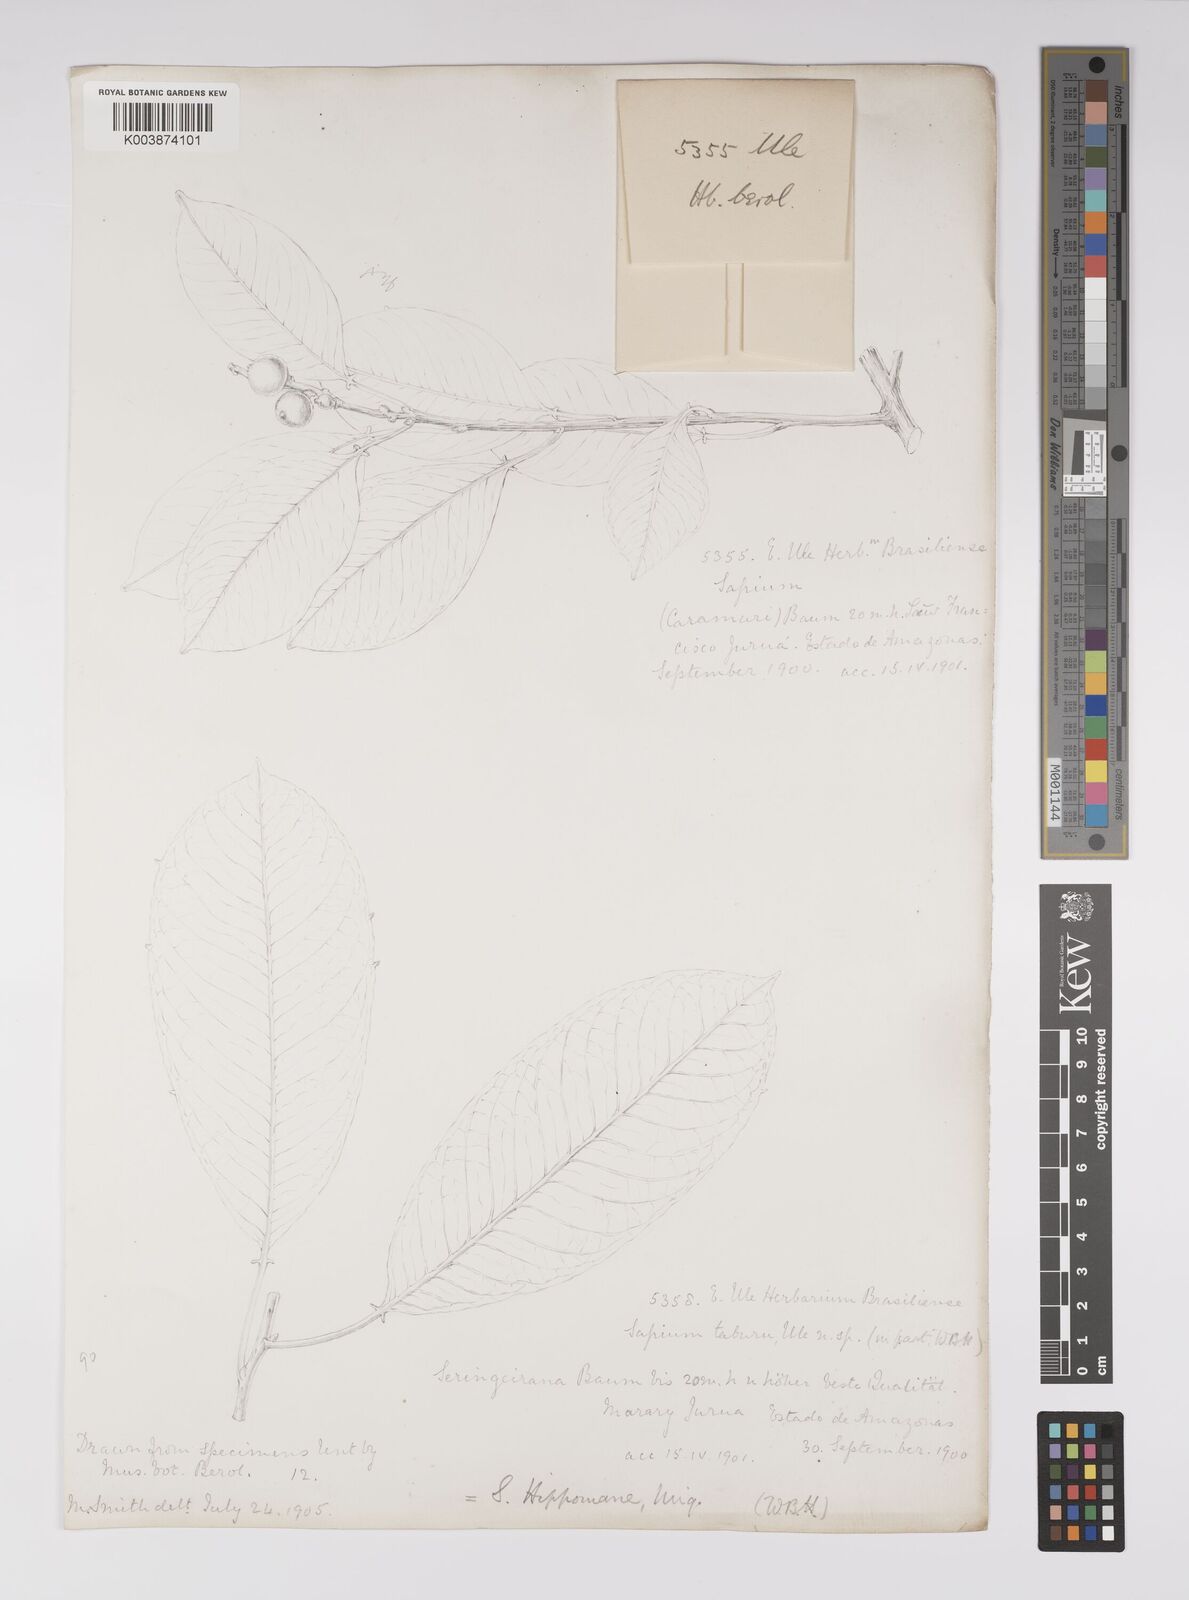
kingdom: Plantae
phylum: Tracheophyta
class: Magnoliopsida
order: Malpighiales
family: Euphorbiaceae
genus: Sapium
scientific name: Sapium glandulosum
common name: Milktree
